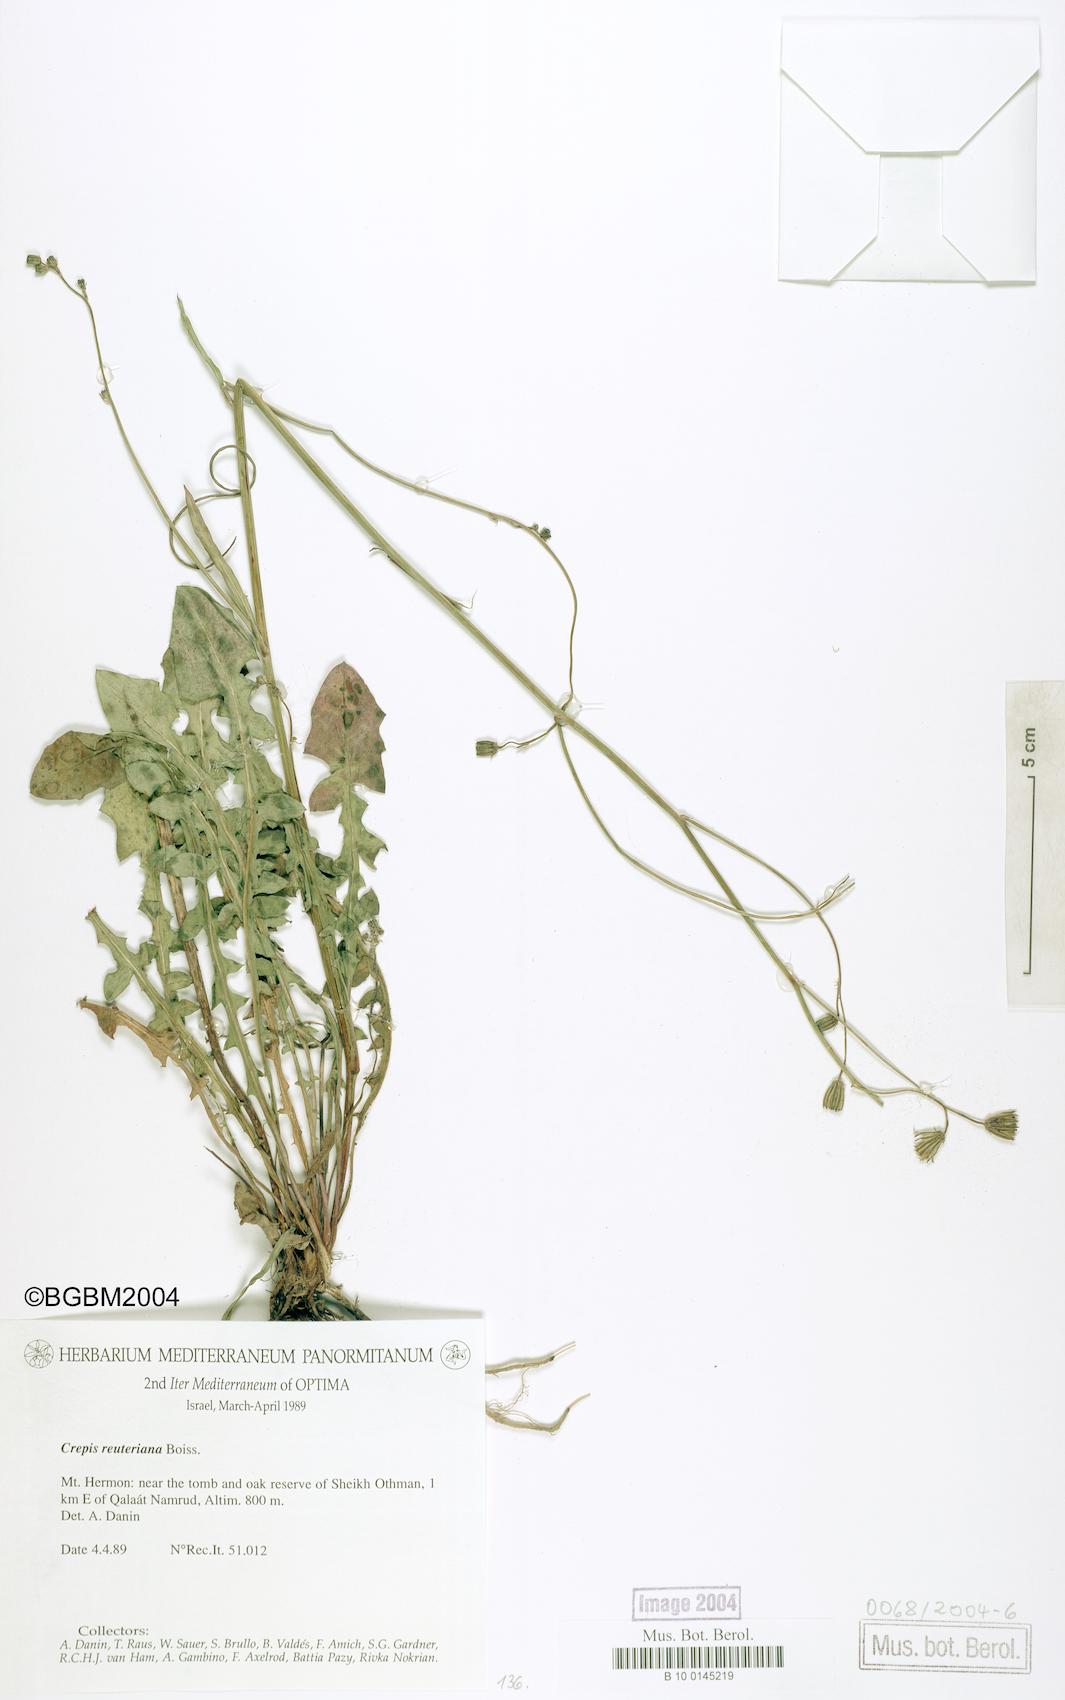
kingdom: Plantae
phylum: Tracheophyta
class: Magnoliopsida
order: Asterales
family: Asteraceae
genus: Crepis
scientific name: Crepis reuteriana
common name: Hawk's-beard
